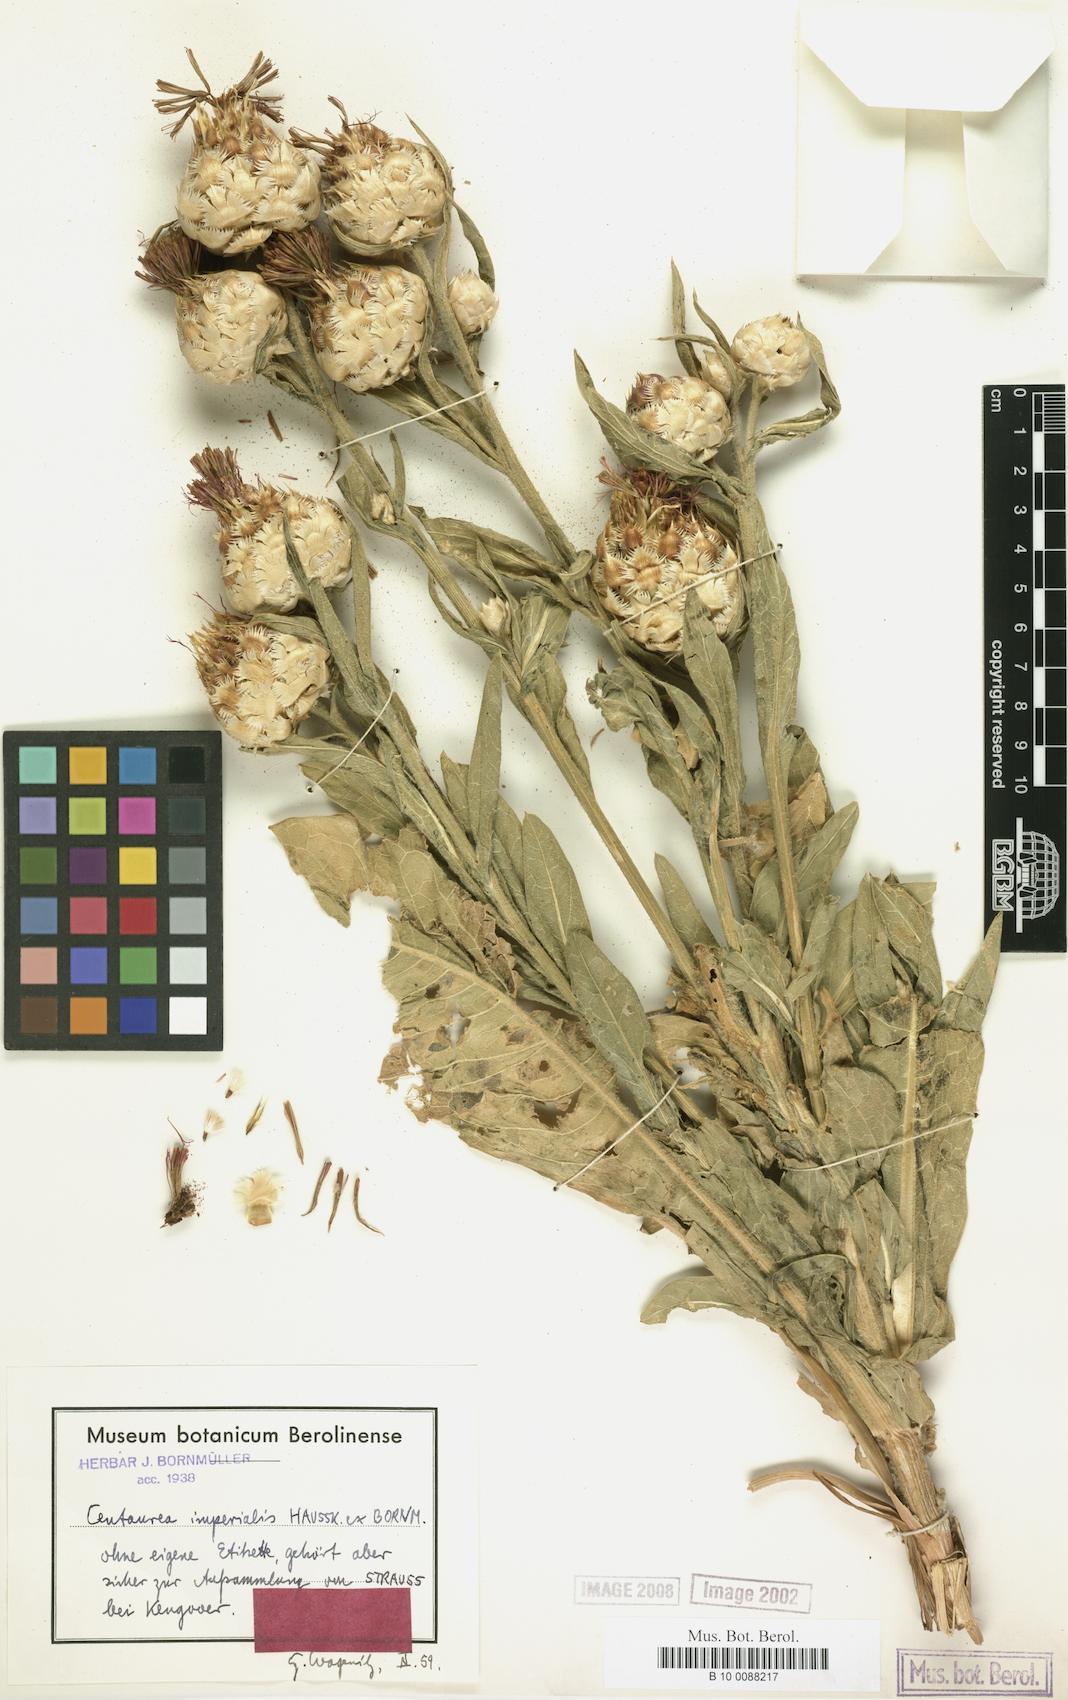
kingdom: Plantae
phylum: Tracheophyta
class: Magnoliopsida
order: Asterales
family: Asteraceae
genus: Centaurea
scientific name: Centaurea imperialis
